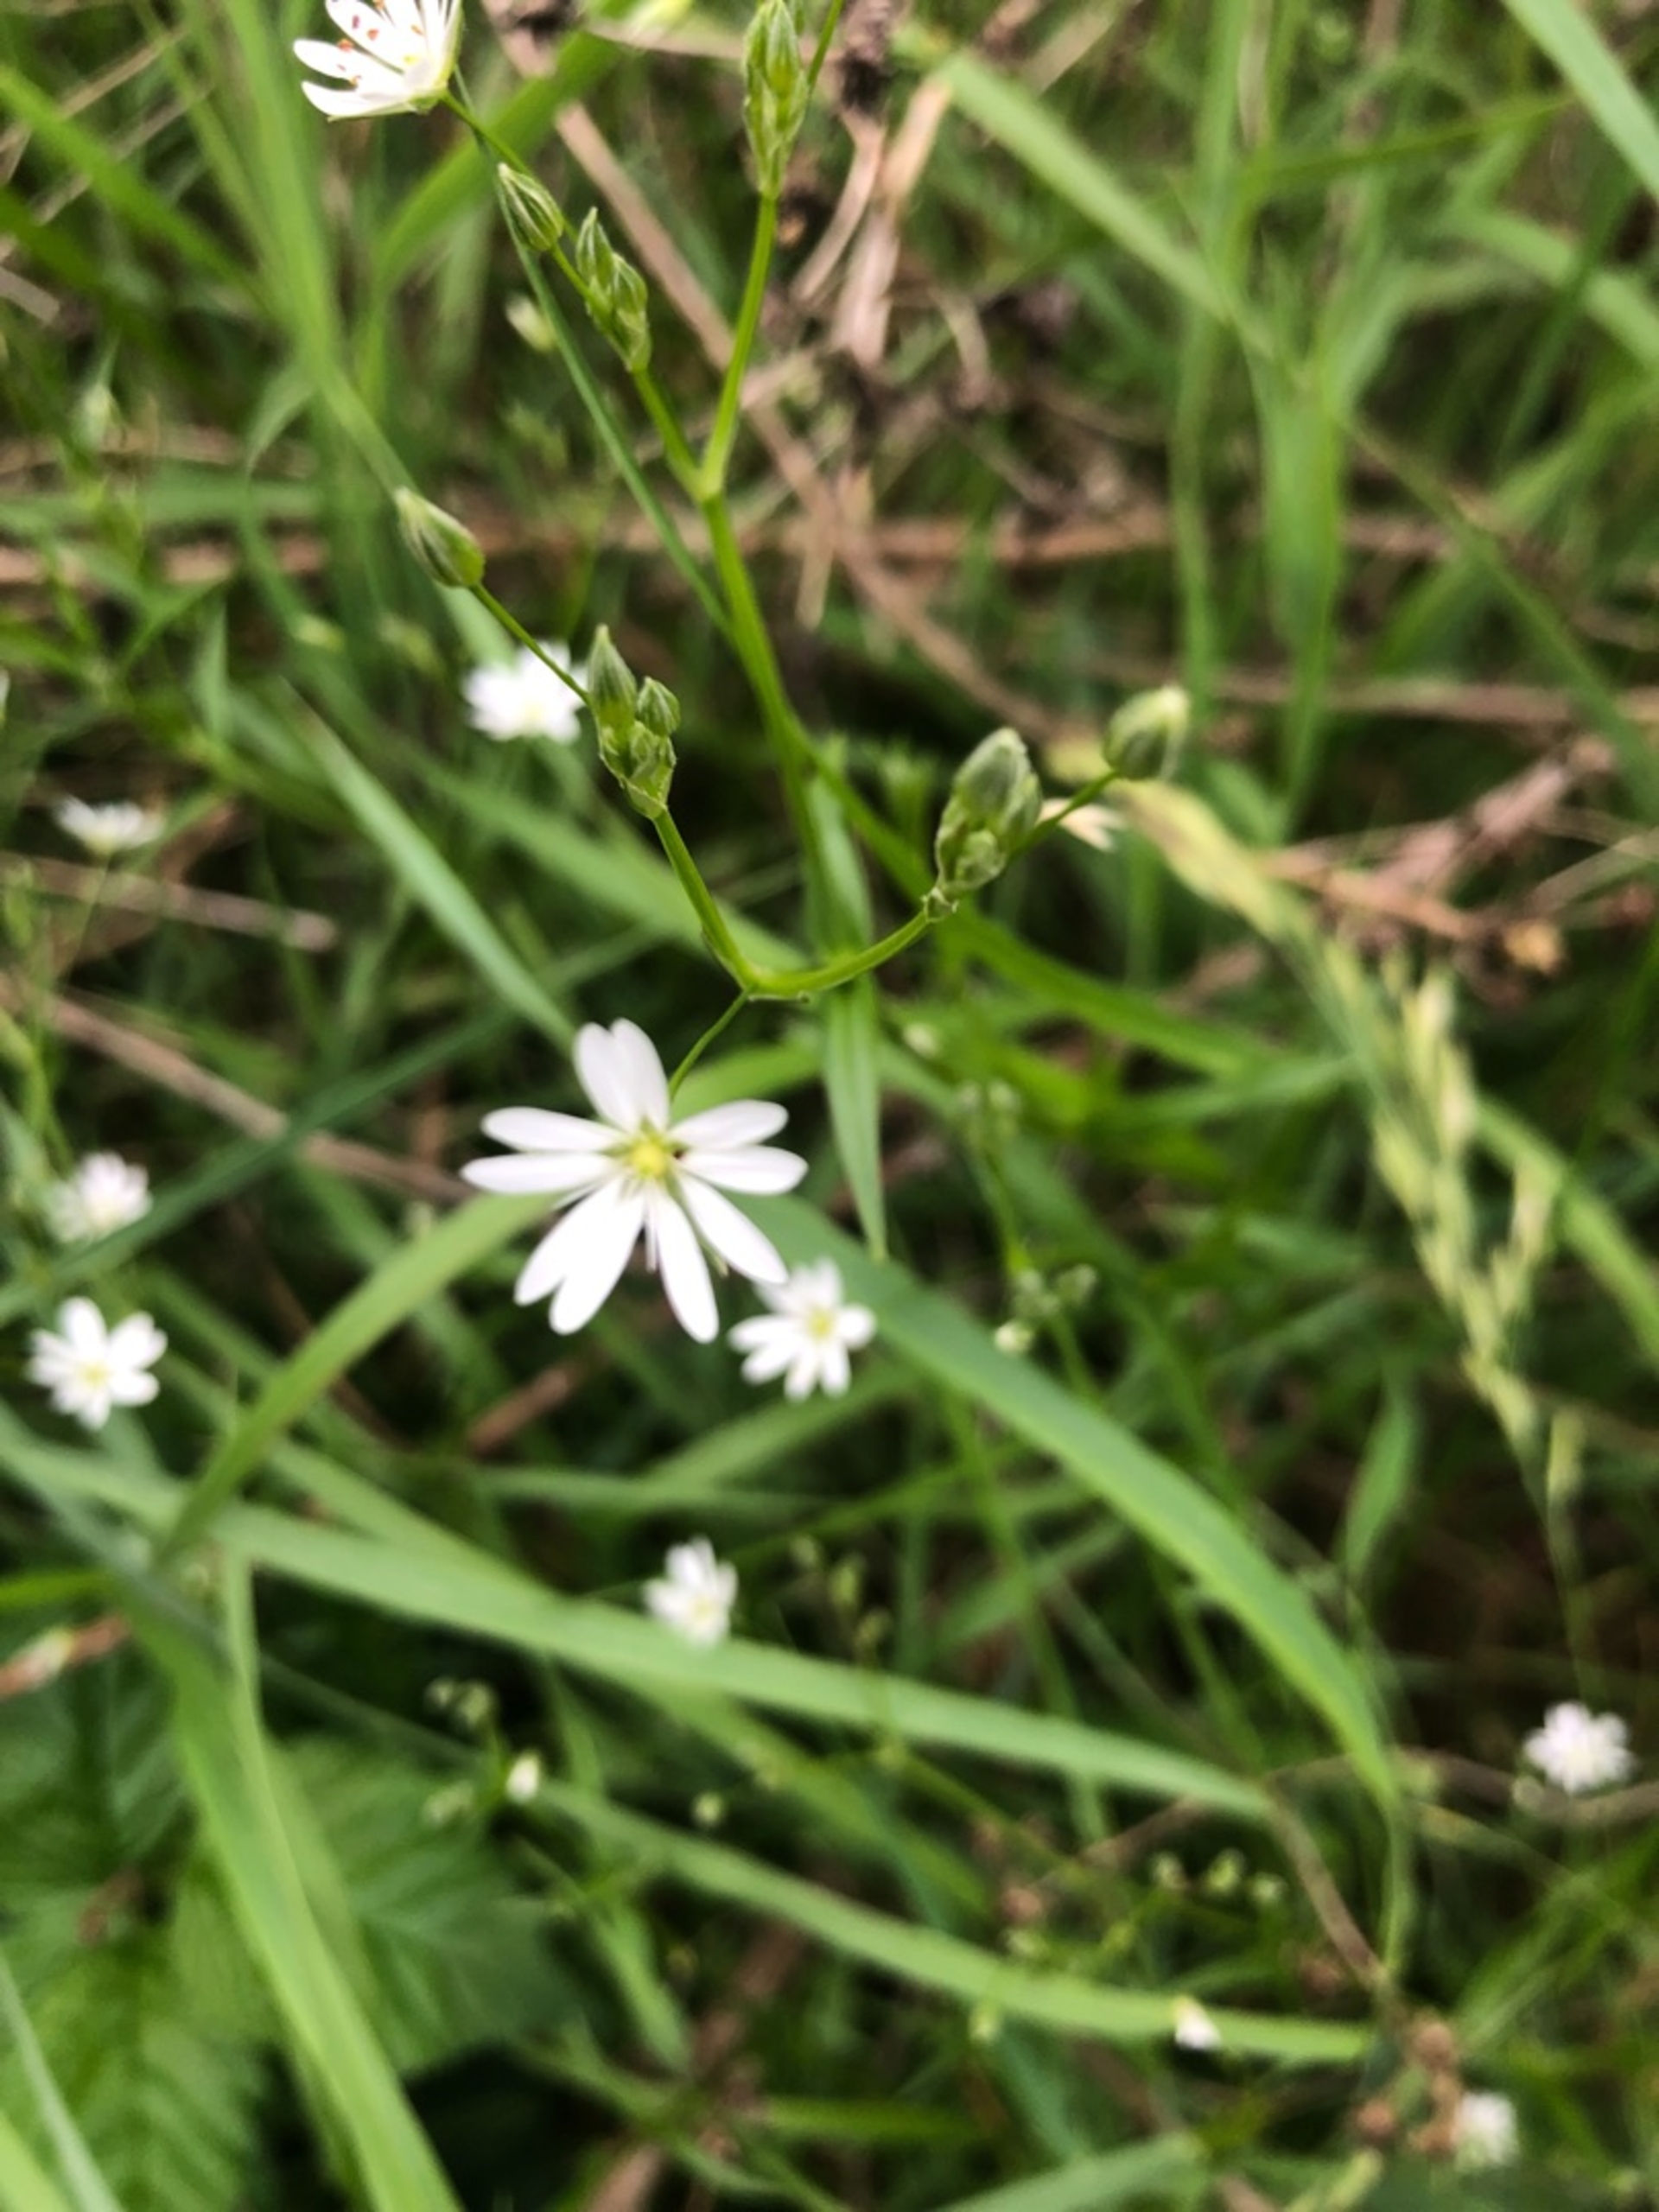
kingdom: Plantae
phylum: Tracheophyta
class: Magnoliopsida
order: Caryophyllales
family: Caryophyllaceae
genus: Stellaria
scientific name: Stellaria graminea
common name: Græsbladet fladstjerne
